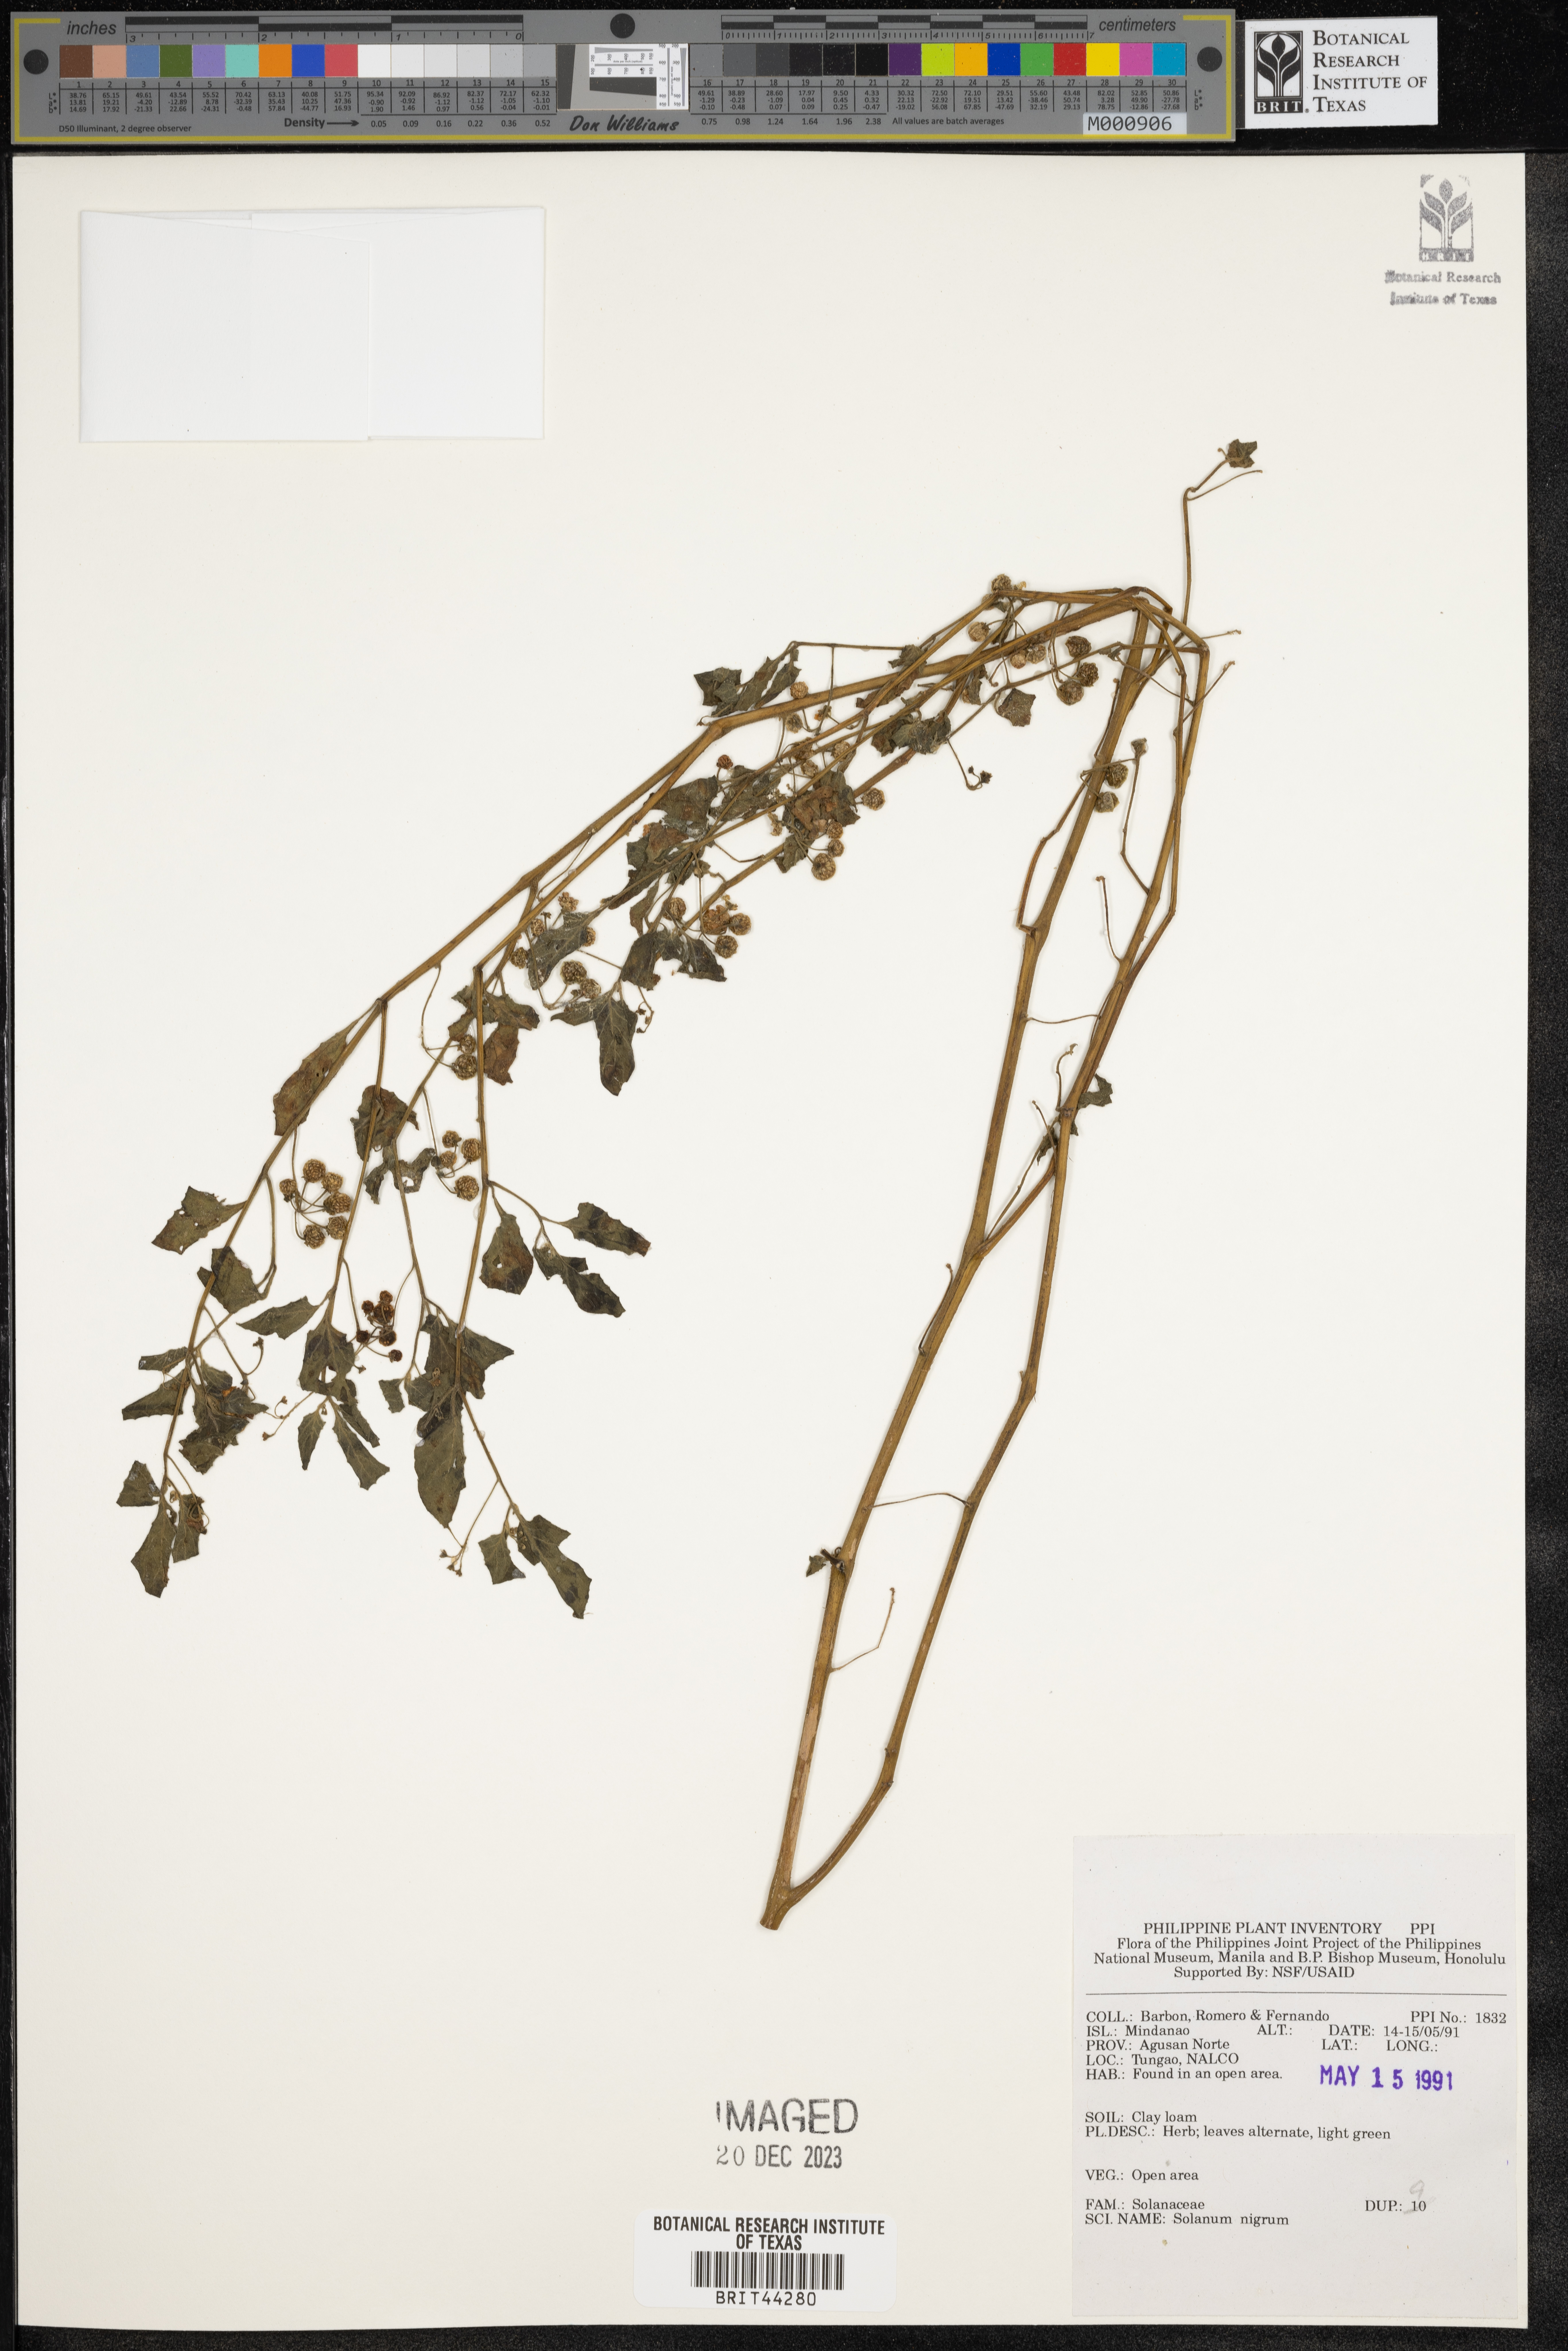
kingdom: Plantae
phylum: Tracheophyta
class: Magnoliopsida
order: Solanales
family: Solanaceae
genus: Solanum
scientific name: Solanum nigrum
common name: Black nightshade
